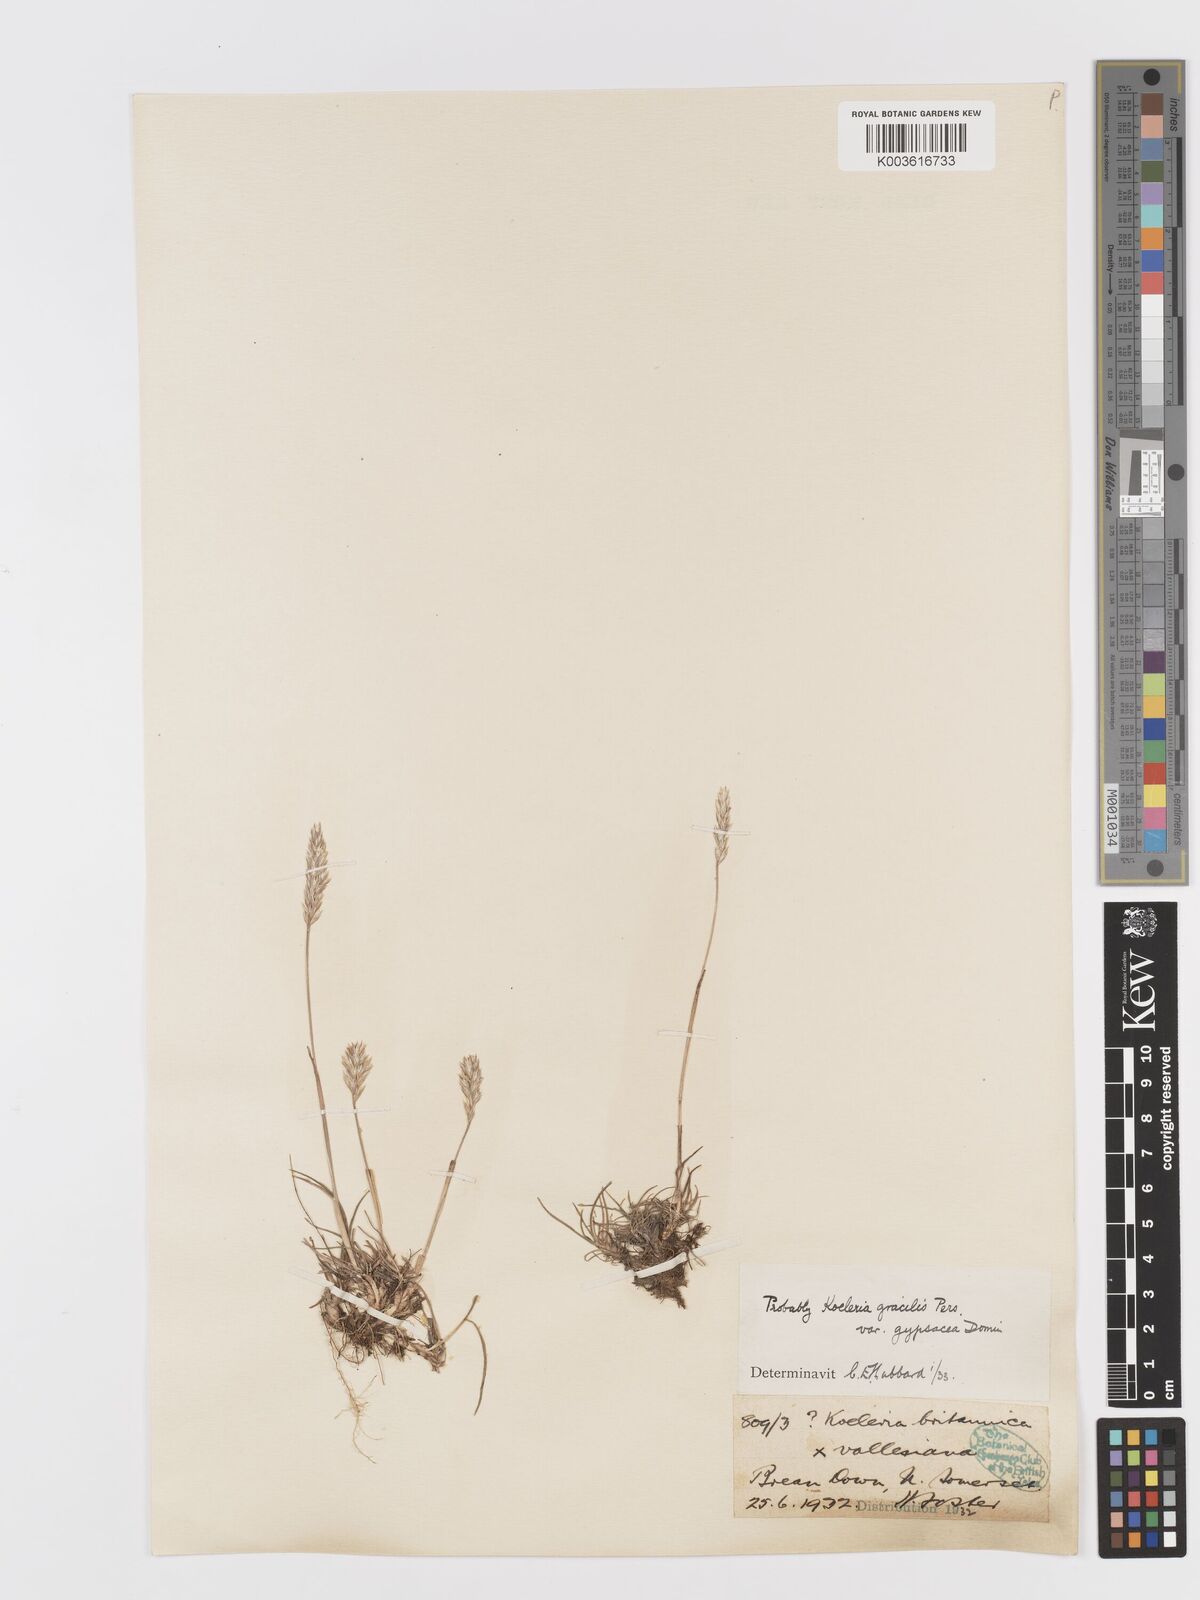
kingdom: Plantae
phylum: Tracheophyta
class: Liliopsida
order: Poales
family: Poaceae
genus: Koeleria
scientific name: Koeleria
